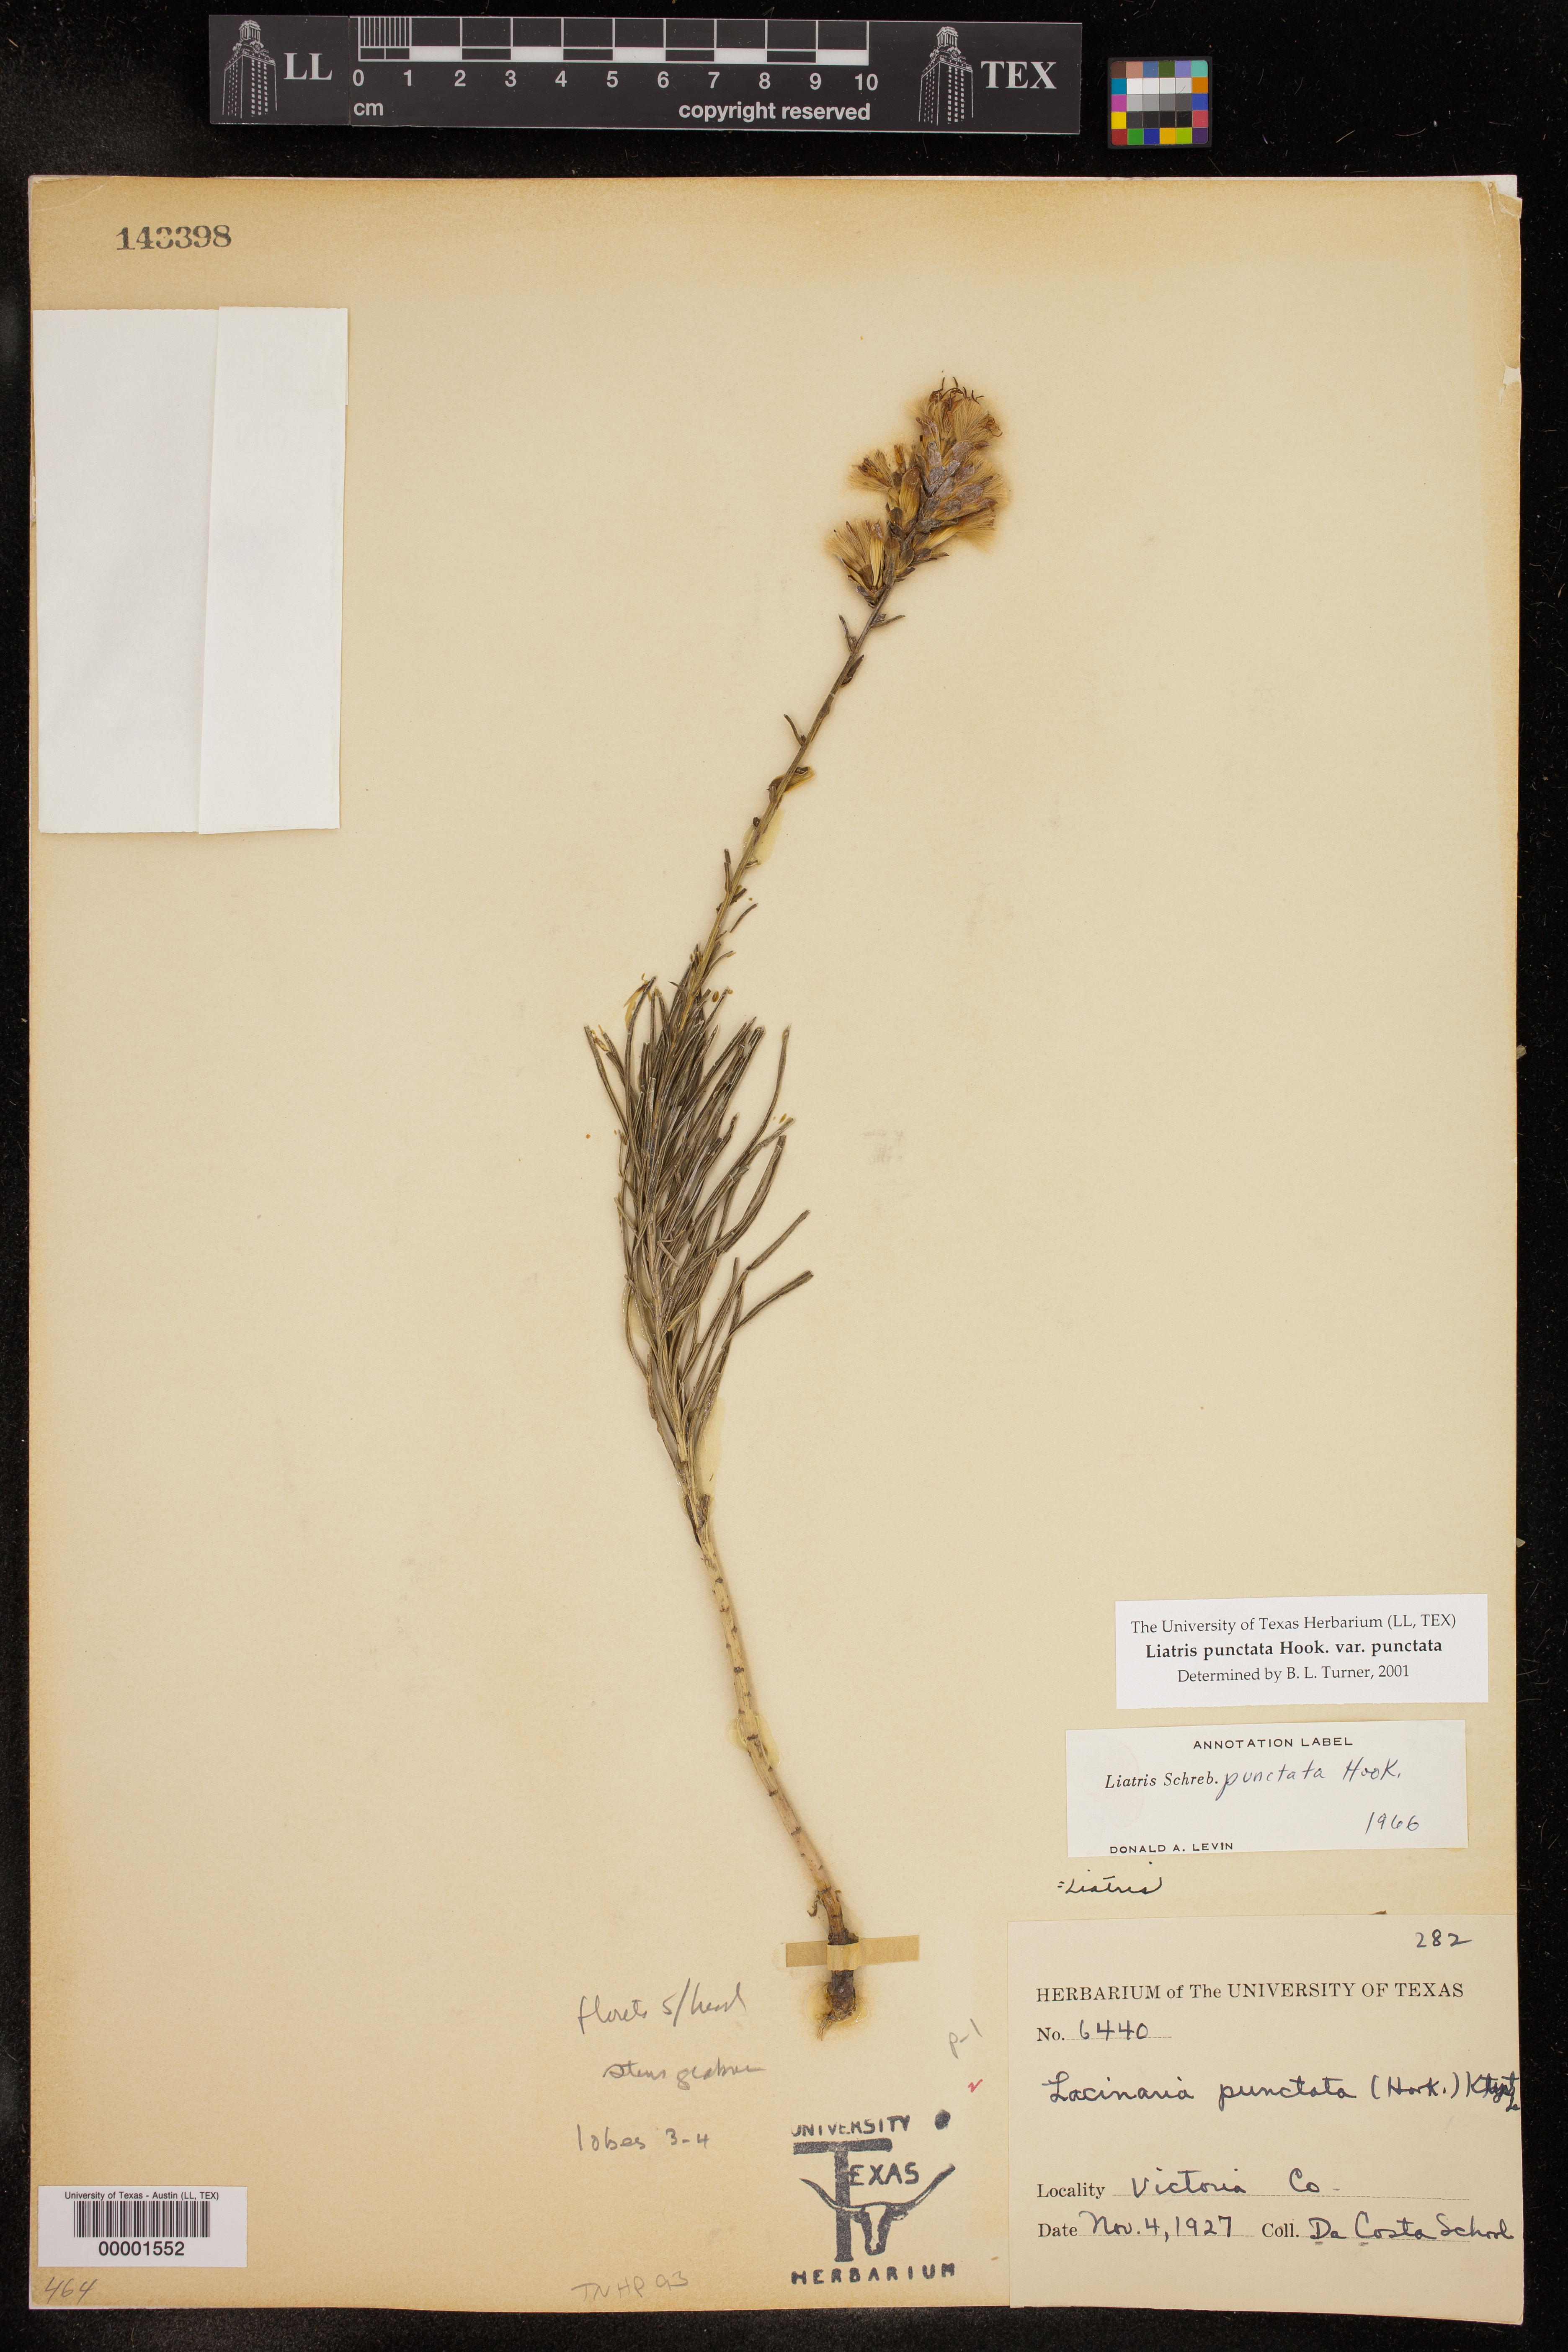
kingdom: Plantae
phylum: Tracheophyta
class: Magnoliopsida
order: Asterales
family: Asteraceae
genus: Liatris
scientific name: Liatris punctata
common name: Dotted gayfeather
